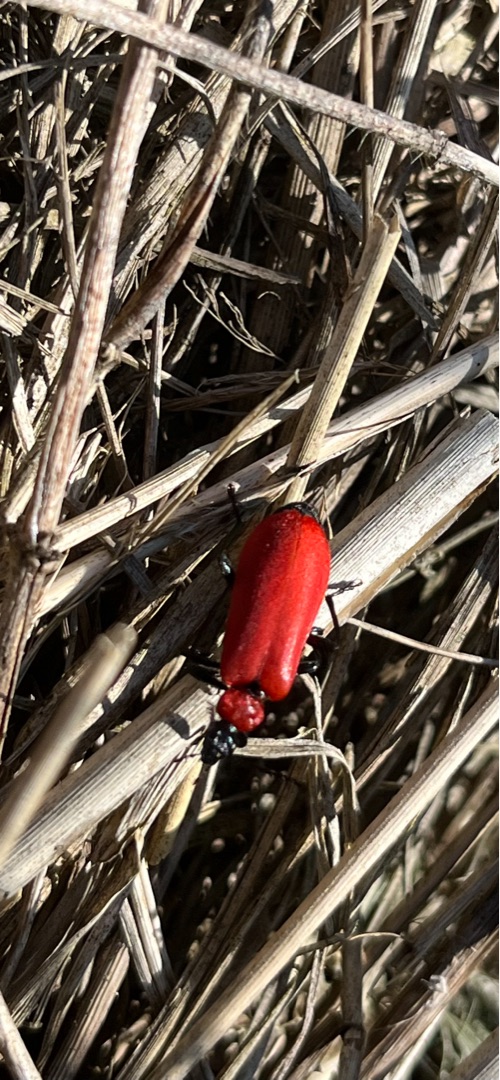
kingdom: Animalia
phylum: Arthropoda
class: Insecta
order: Coleoptera
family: Pyrochroidae
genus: Pyrochroa
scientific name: Pyrochroa coccinea
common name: Sorthovedet kardinalbille
